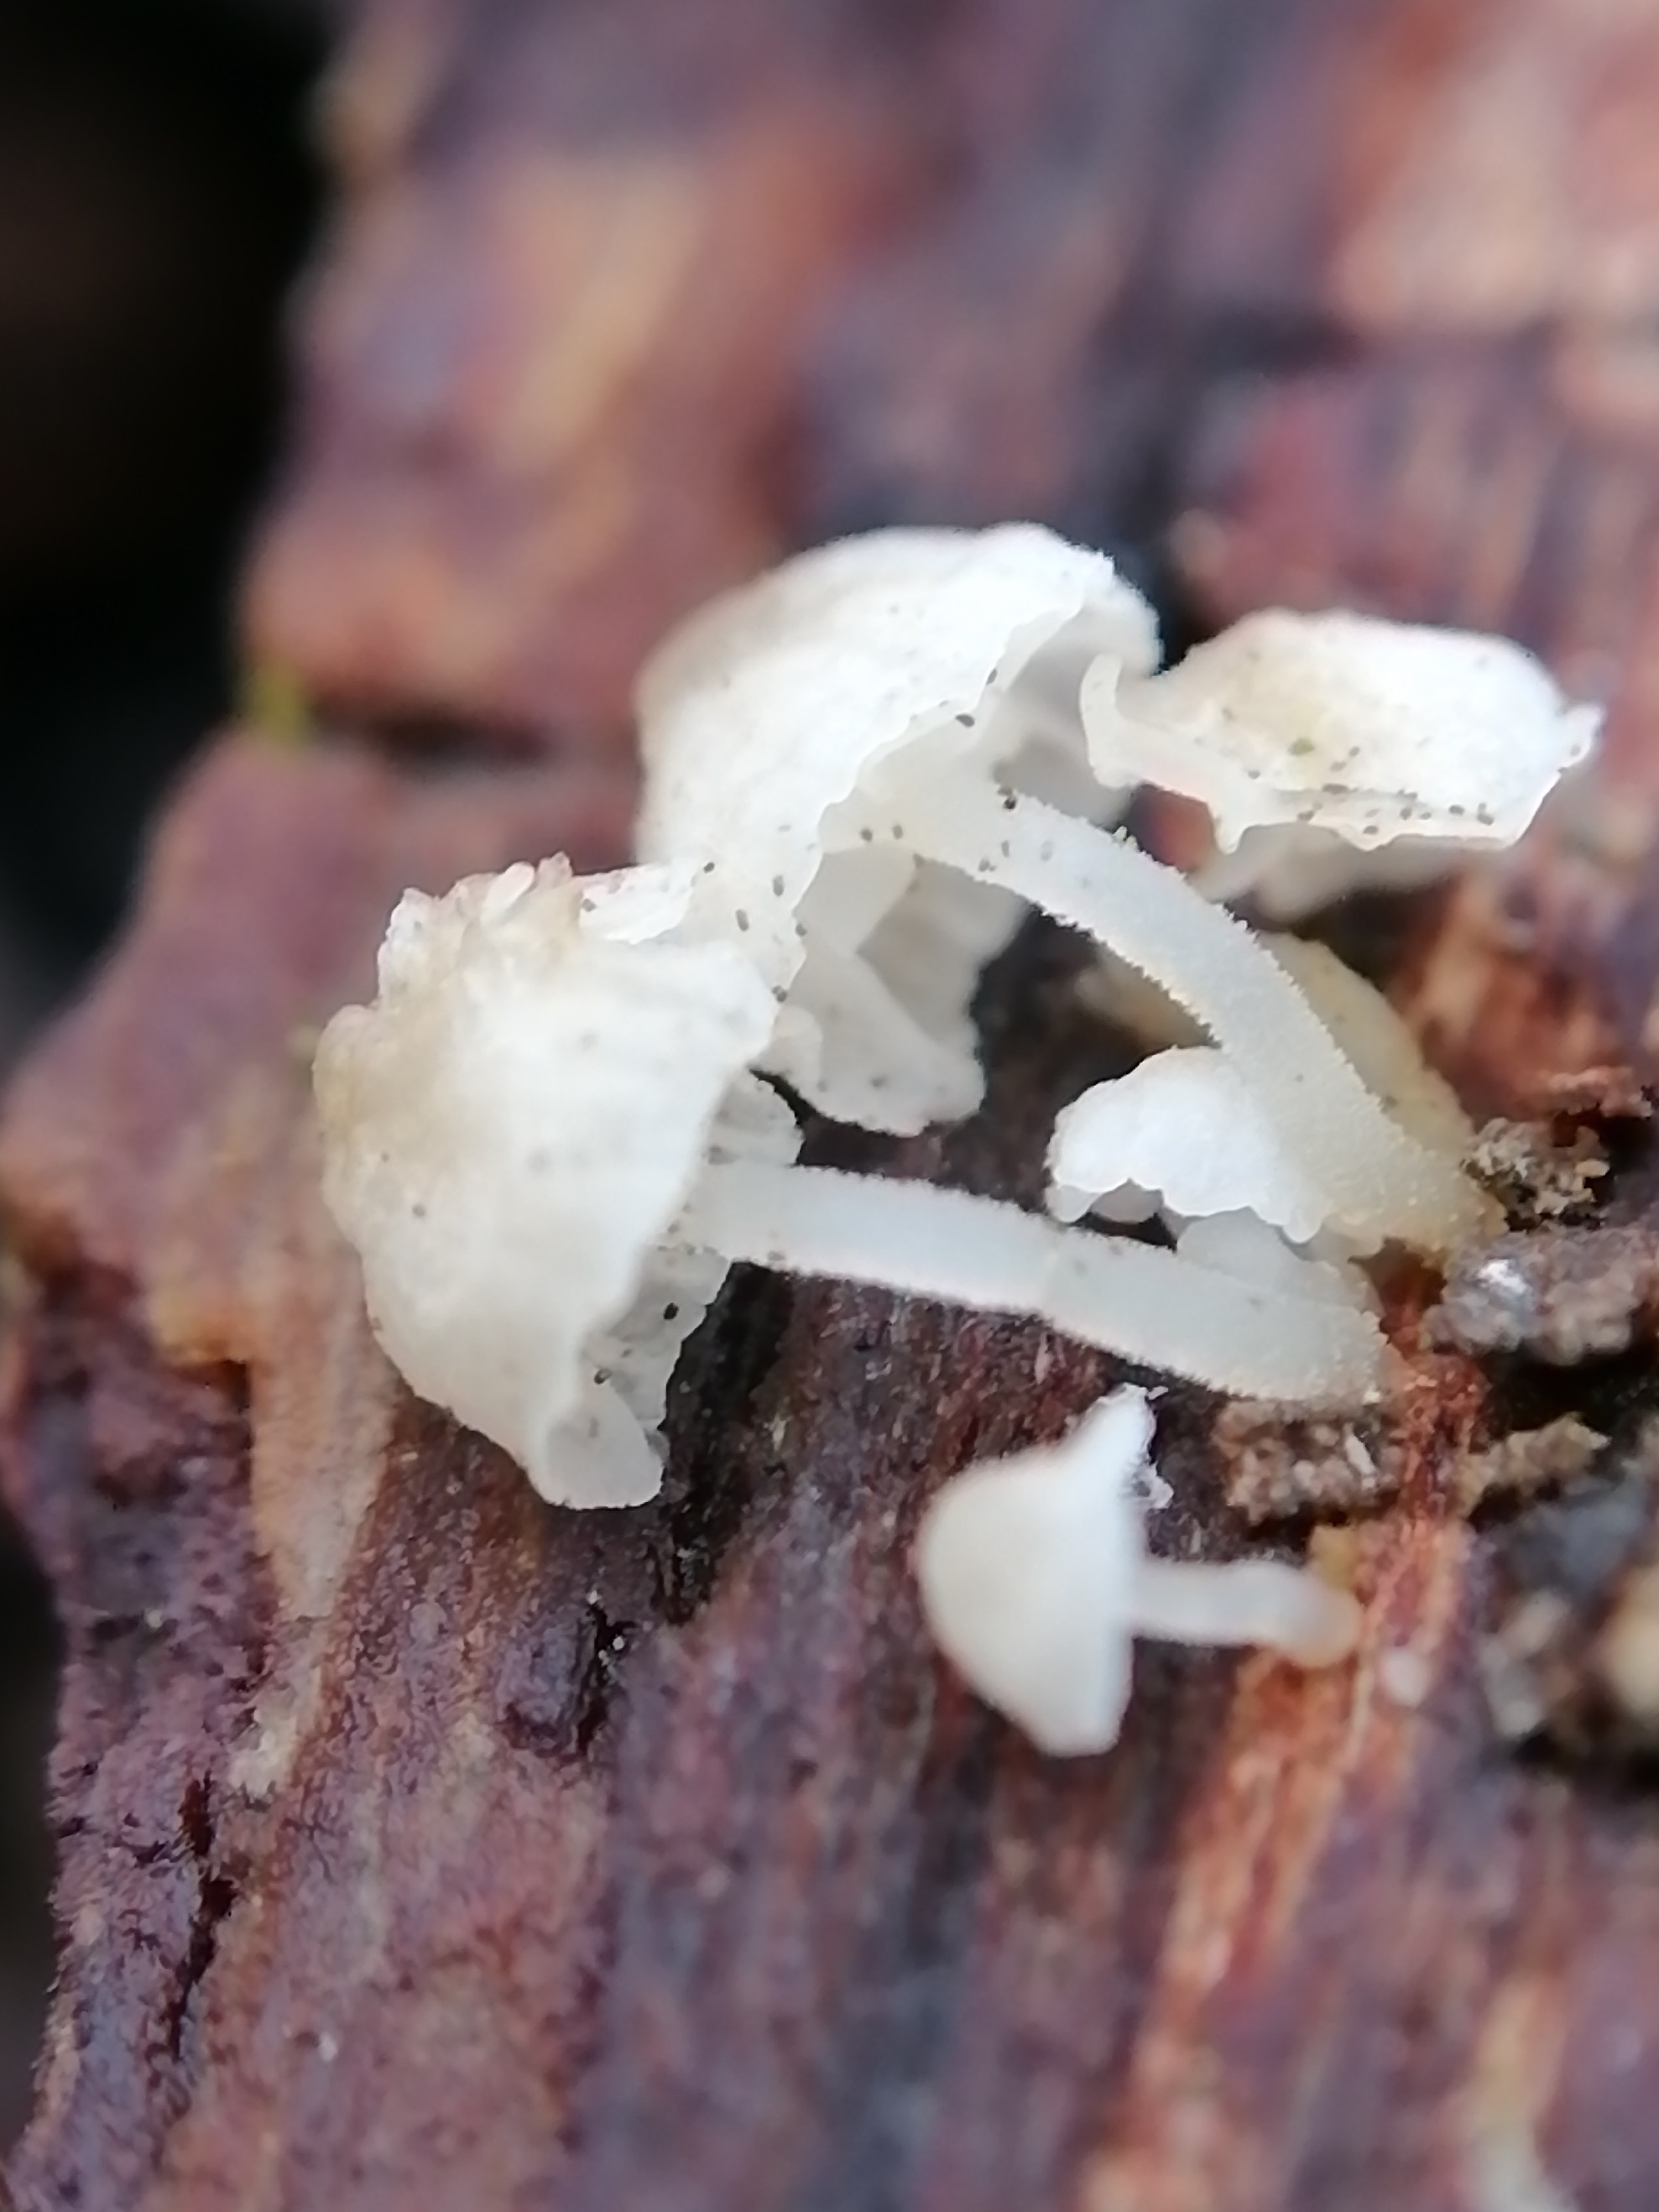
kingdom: Fungi
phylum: Basidiomycota
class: Agaricomycetes
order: Agaricales
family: Porotheleaceae
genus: Phloeomana
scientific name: Phloeomana
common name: huesvamp
